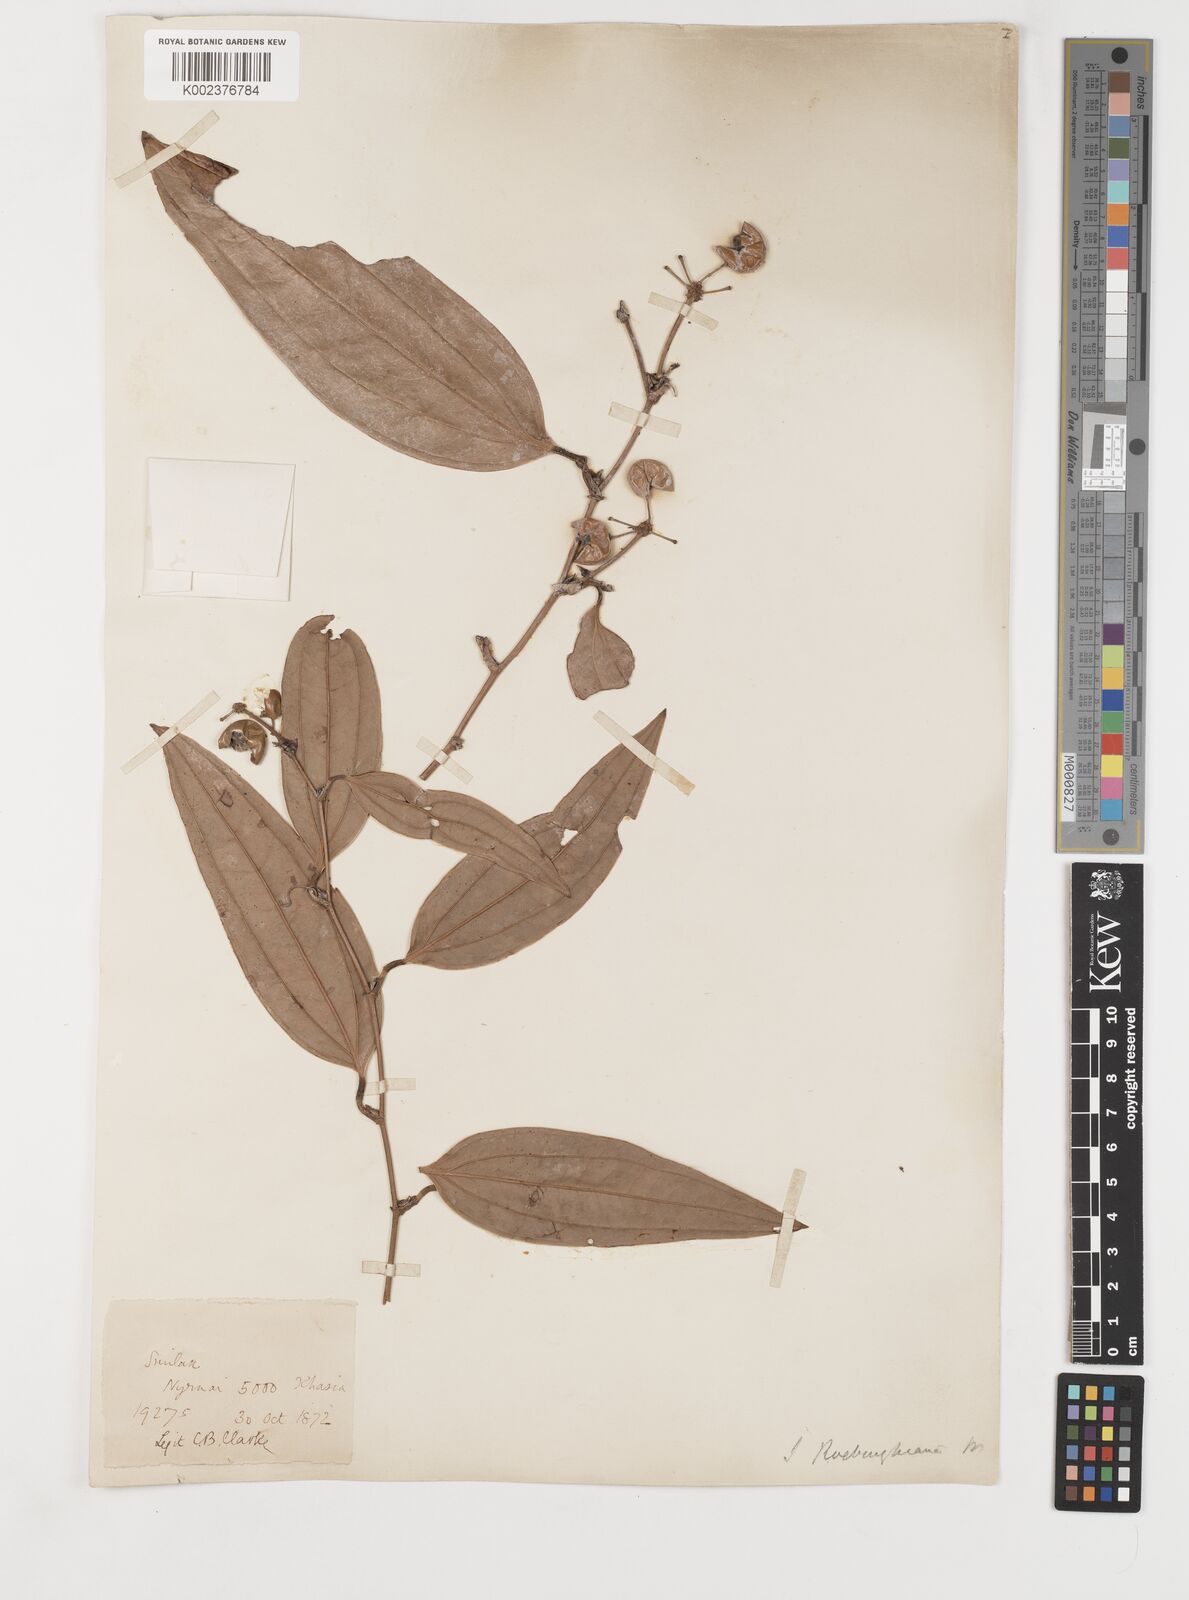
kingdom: Plantae
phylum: Tracheophyta
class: Liliopsida
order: Liliales
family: Smilacaceae
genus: Smilax
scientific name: Smilax roxburghiana
